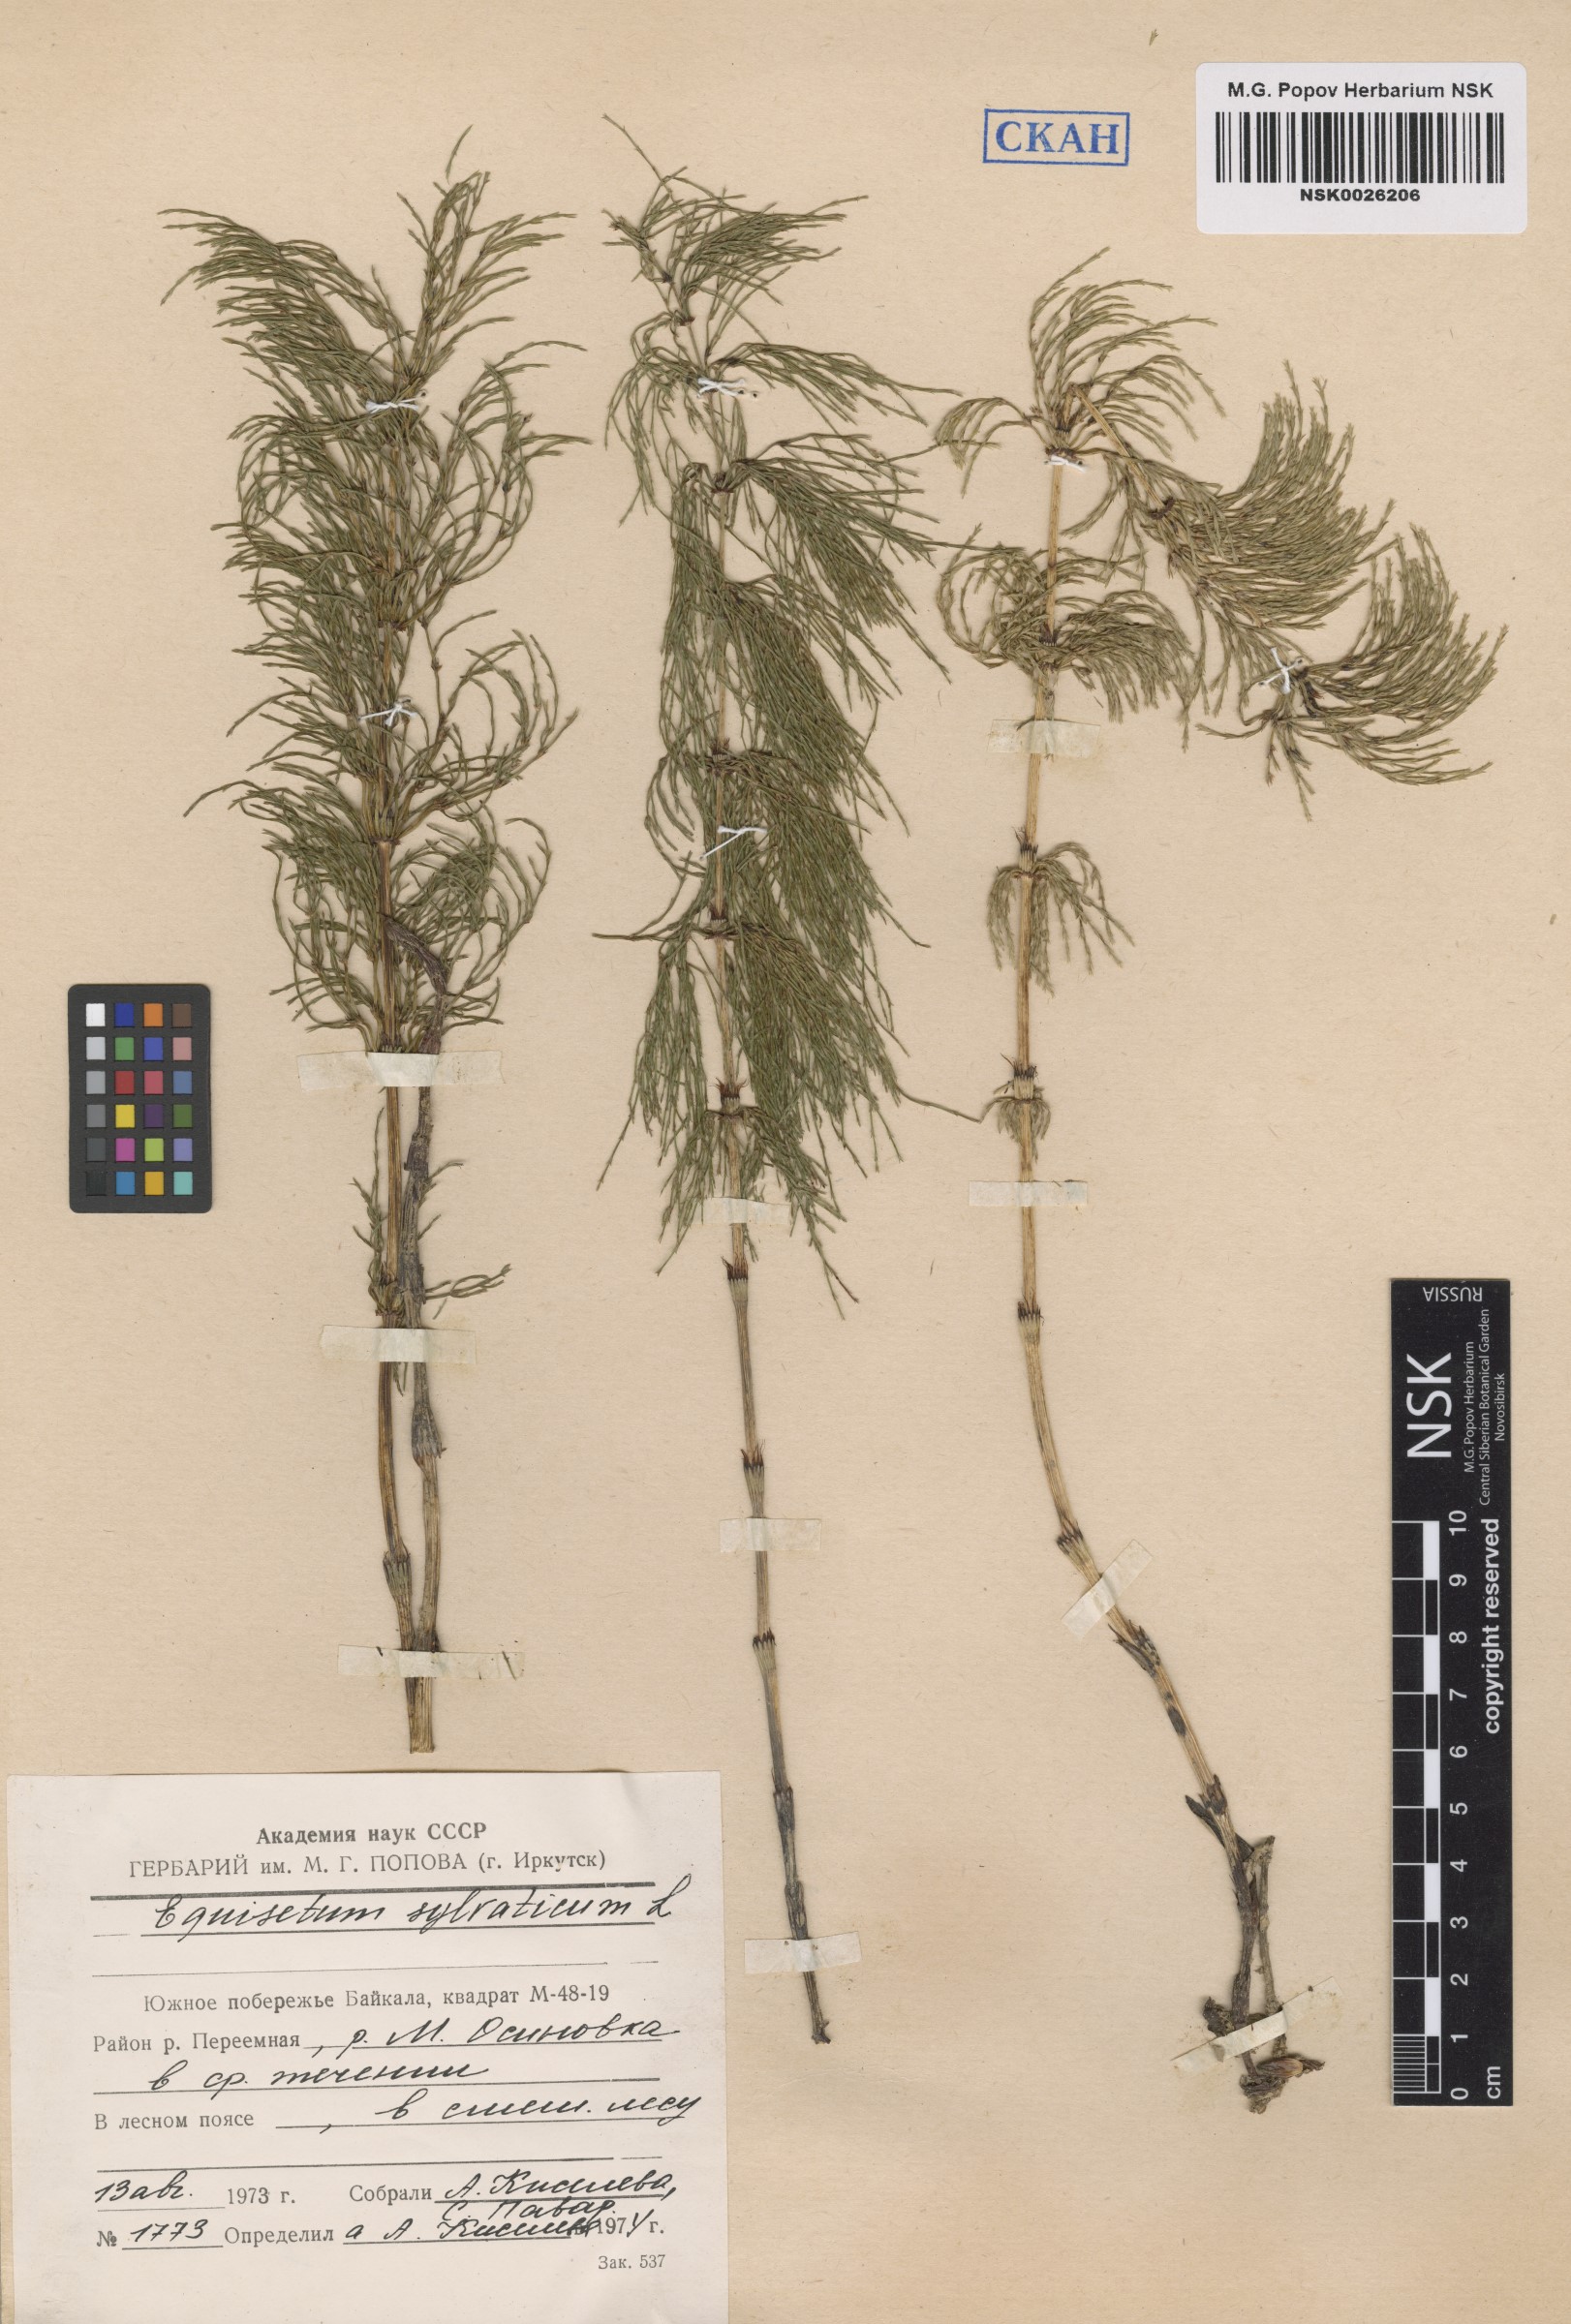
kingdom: Plantae
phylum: Tracheophyta
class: Polypodiopsida
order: Equisetales
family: Equisetaceae
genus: Equisetum
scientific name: Equisetum sylvaticum
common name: Wood horsetail
